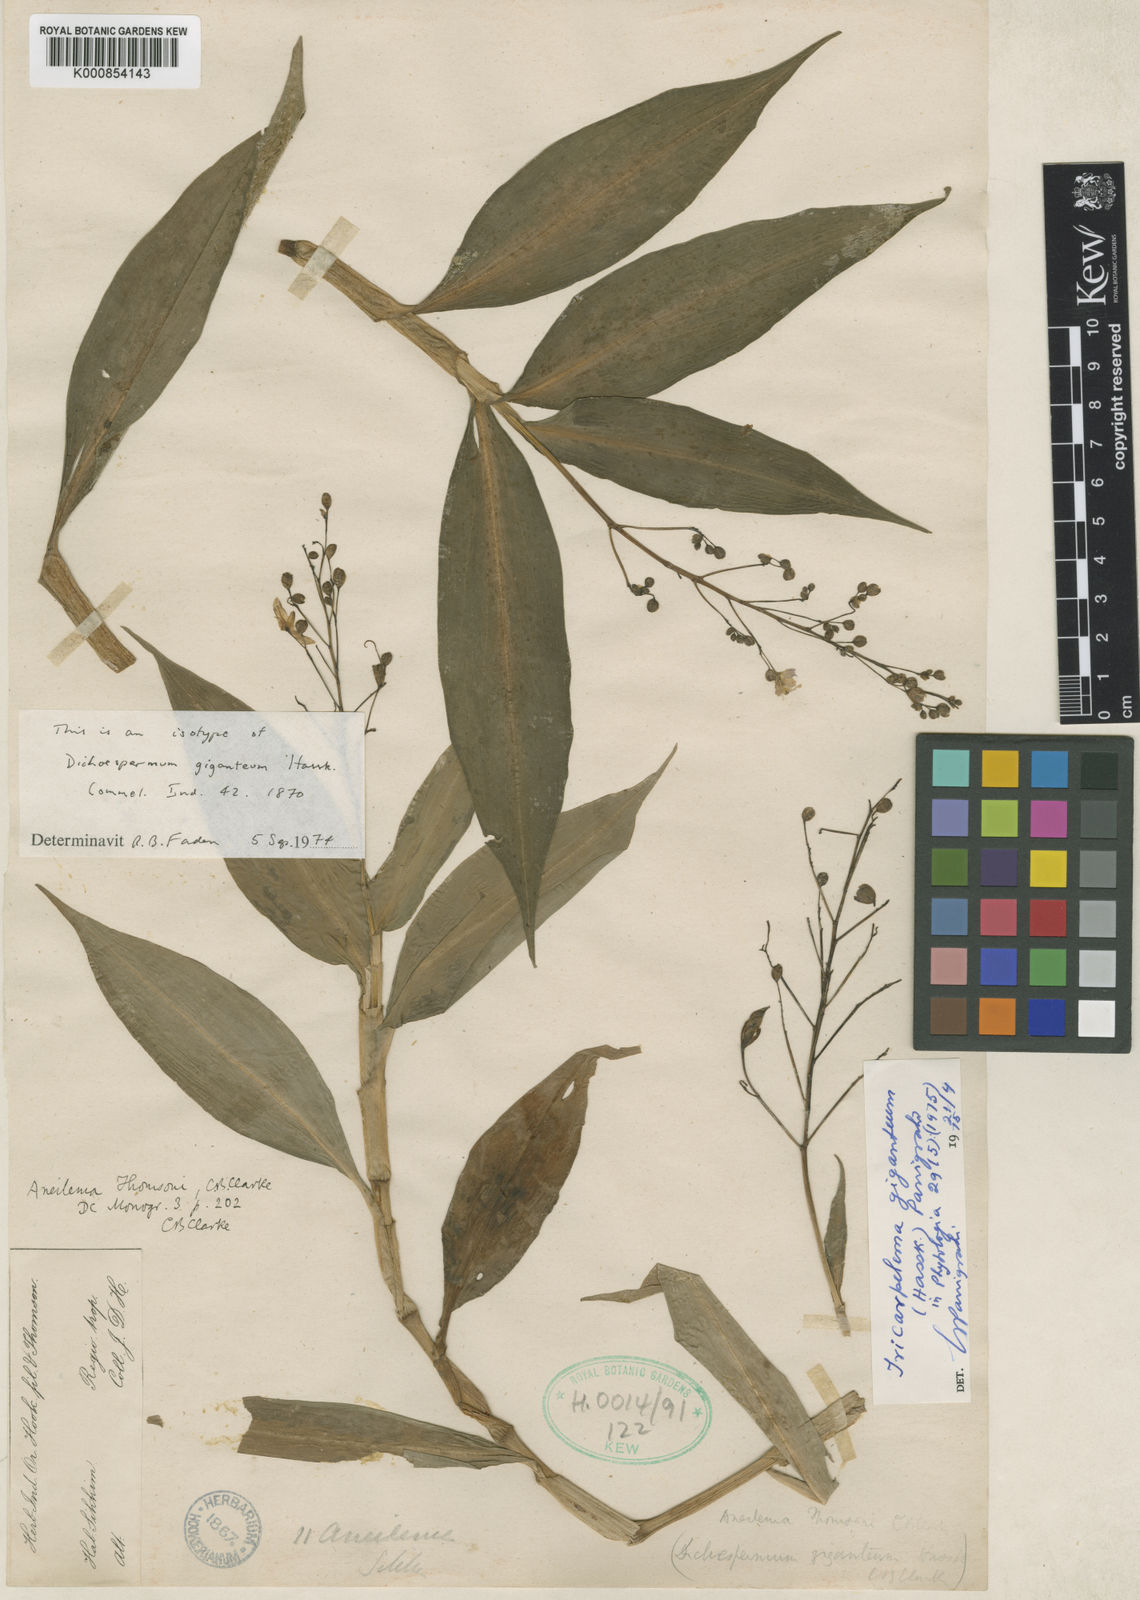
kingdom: Plantae
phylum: Tracheophyta
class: Liliopsida
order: Commelinales
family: Commelinaceae
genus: Tricarpelema
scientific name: Tricarpelema
